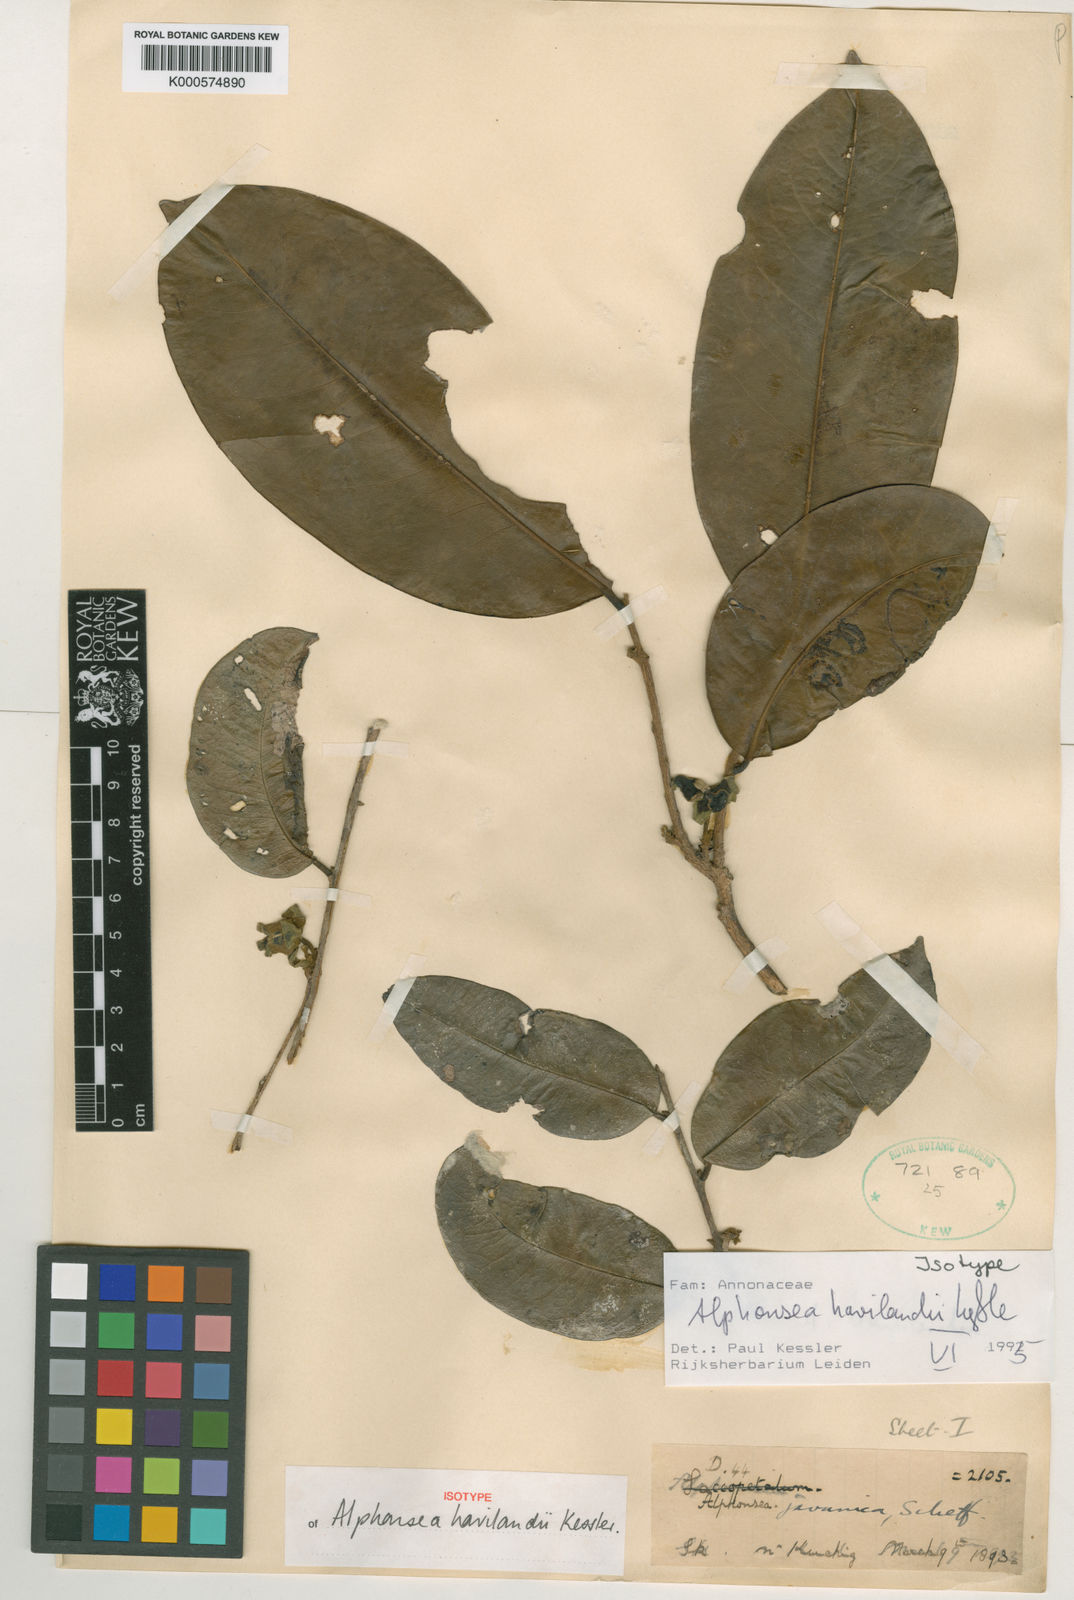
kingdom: Plantae
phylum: Tracheophyta
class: Magnoliopsida
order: Magnoliales
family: Annonaceae
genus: Alphonsea
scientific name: Alphonsea havilandii
